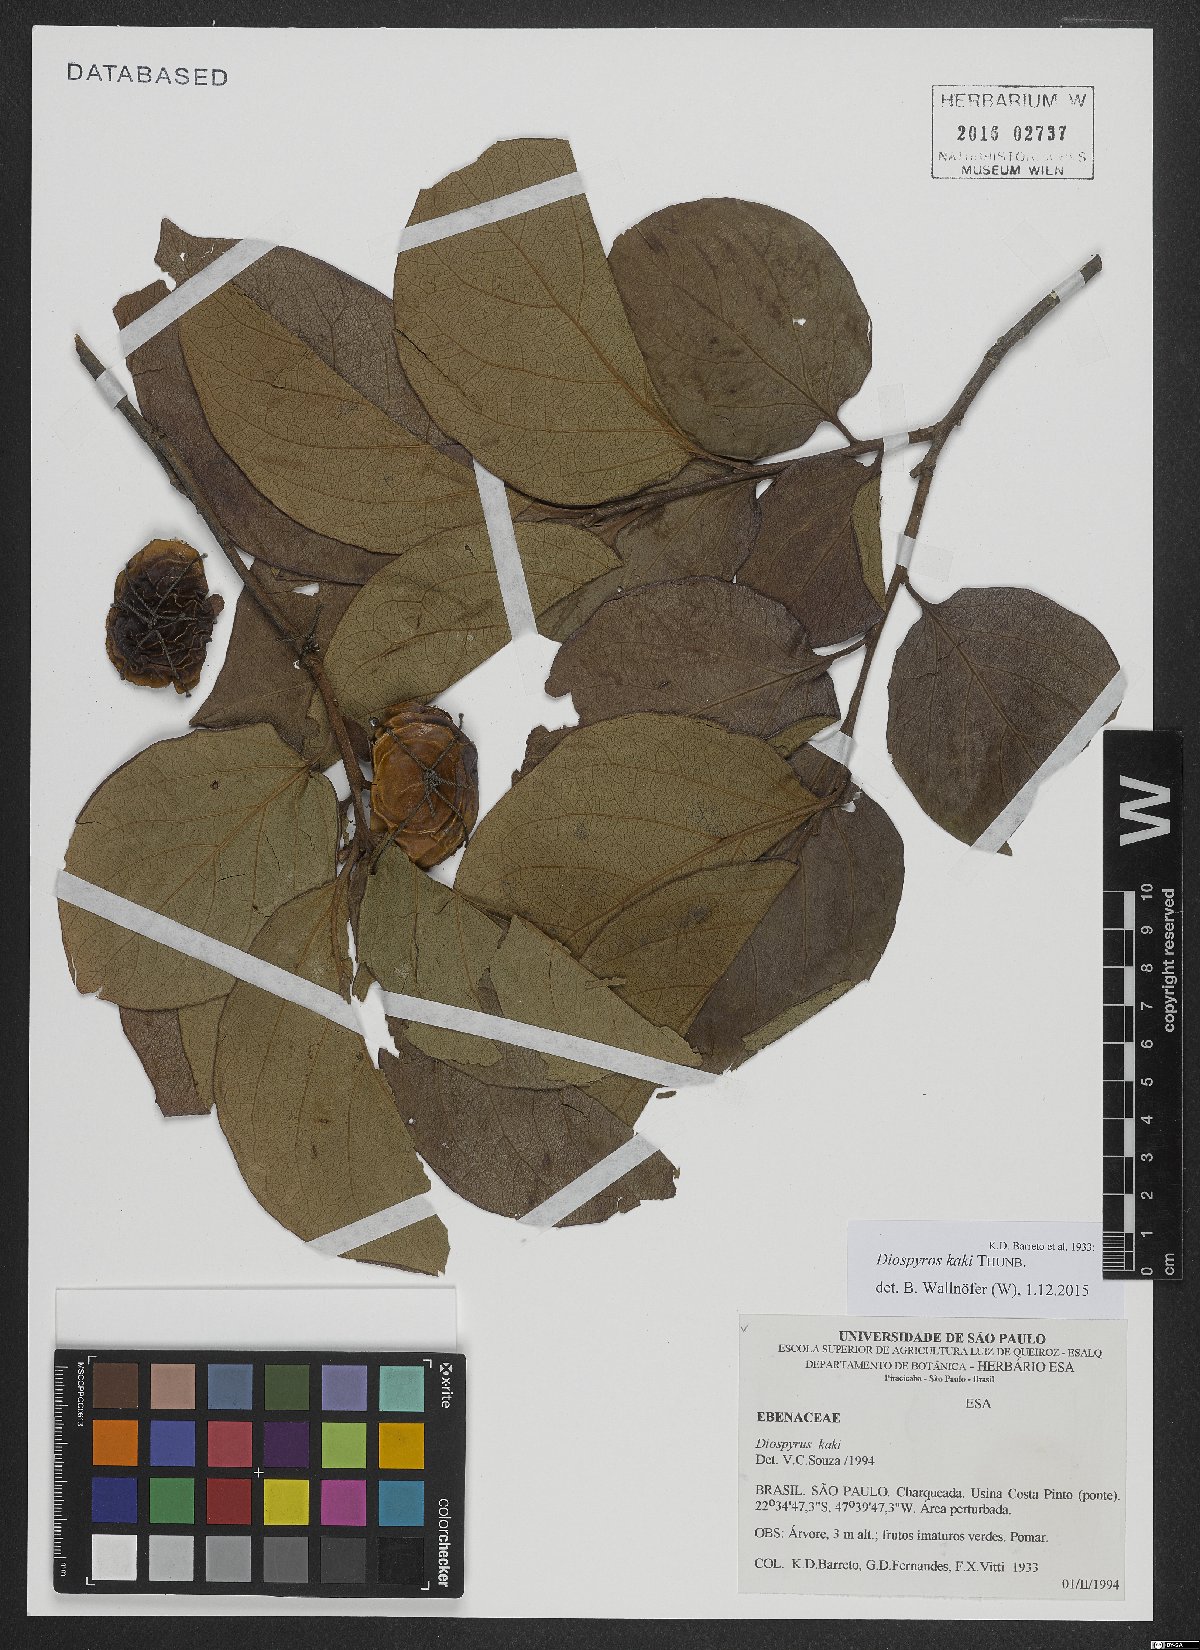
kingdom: Plantae
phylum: Tracheophyta
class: Magnoliopsida
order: Ericales
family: Ebenaceae
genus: Diospyros
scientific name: Diospyros kaki
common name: Persimmon
